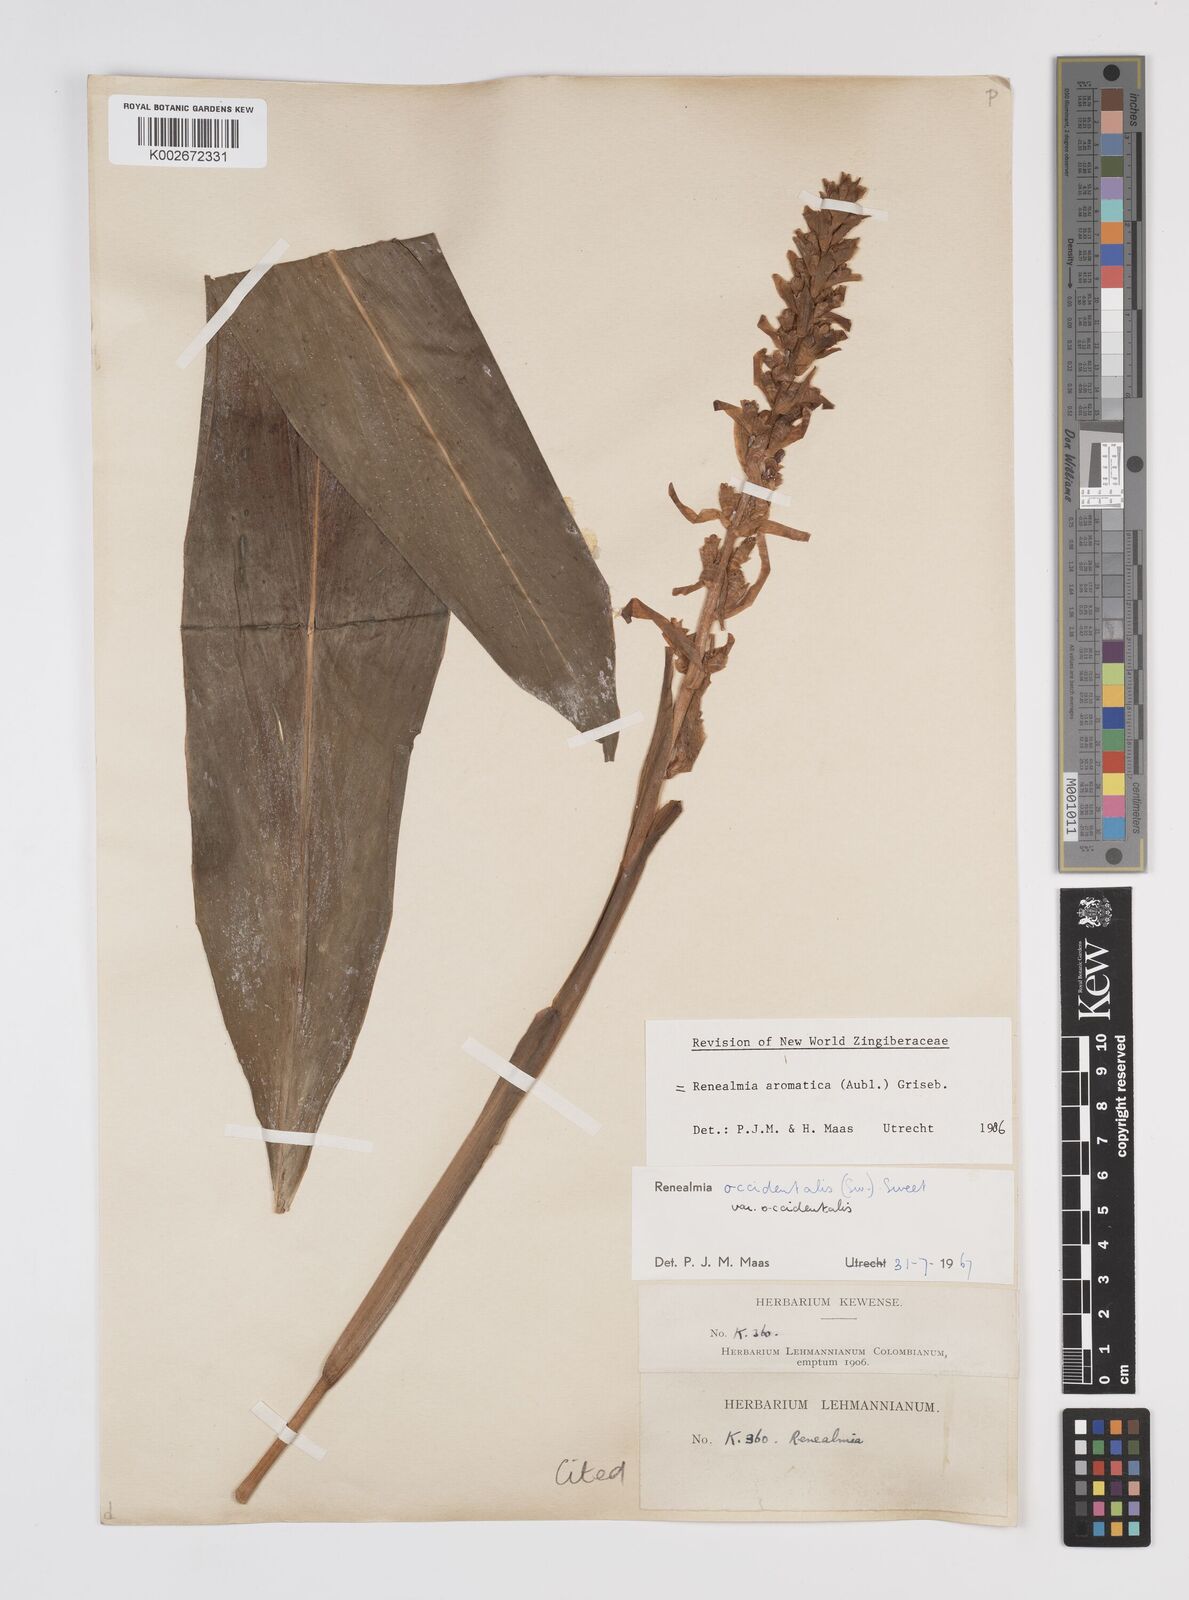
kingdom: Plantae
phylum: Tracheophyta
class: Liliopsida
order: Zingiberales
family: Zingiberaceae
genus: Renealmia
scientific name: Renealmia aromatica
